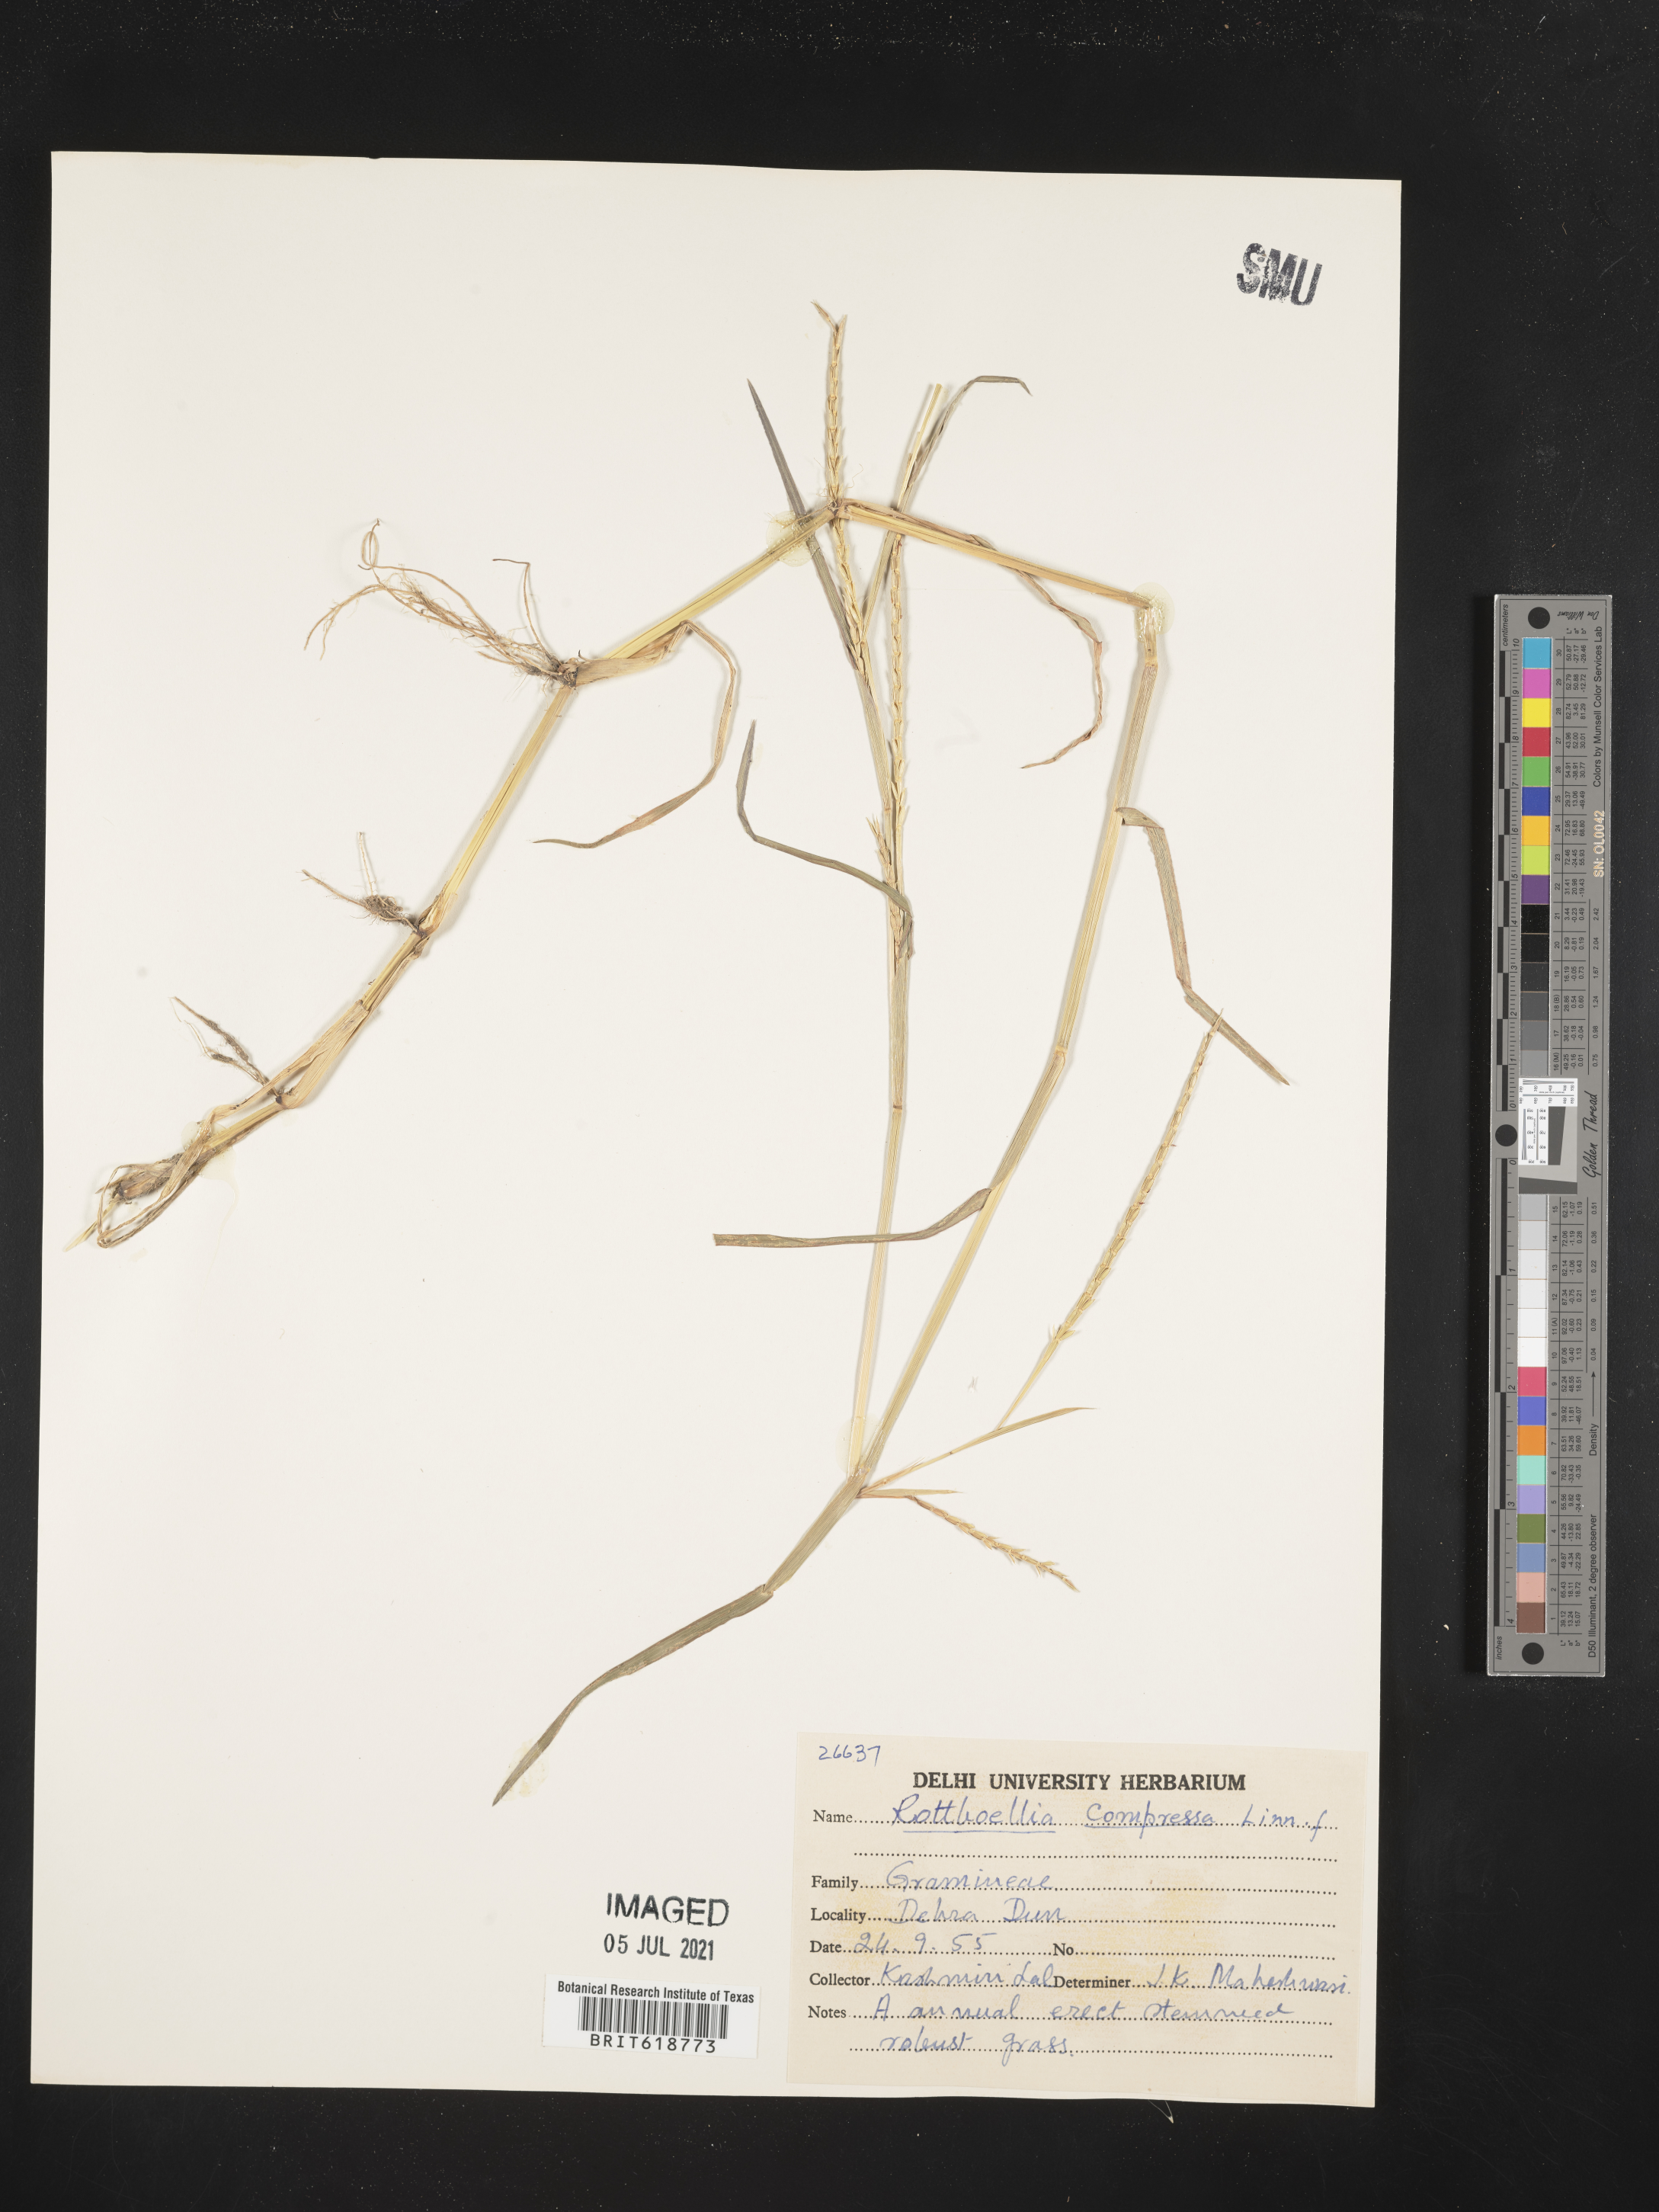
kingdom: Plantae
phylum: Tracheophyta
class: Liliopsida
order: Poales
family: Poaceae
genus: Rottboellia
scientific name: Rottboellia compressa
